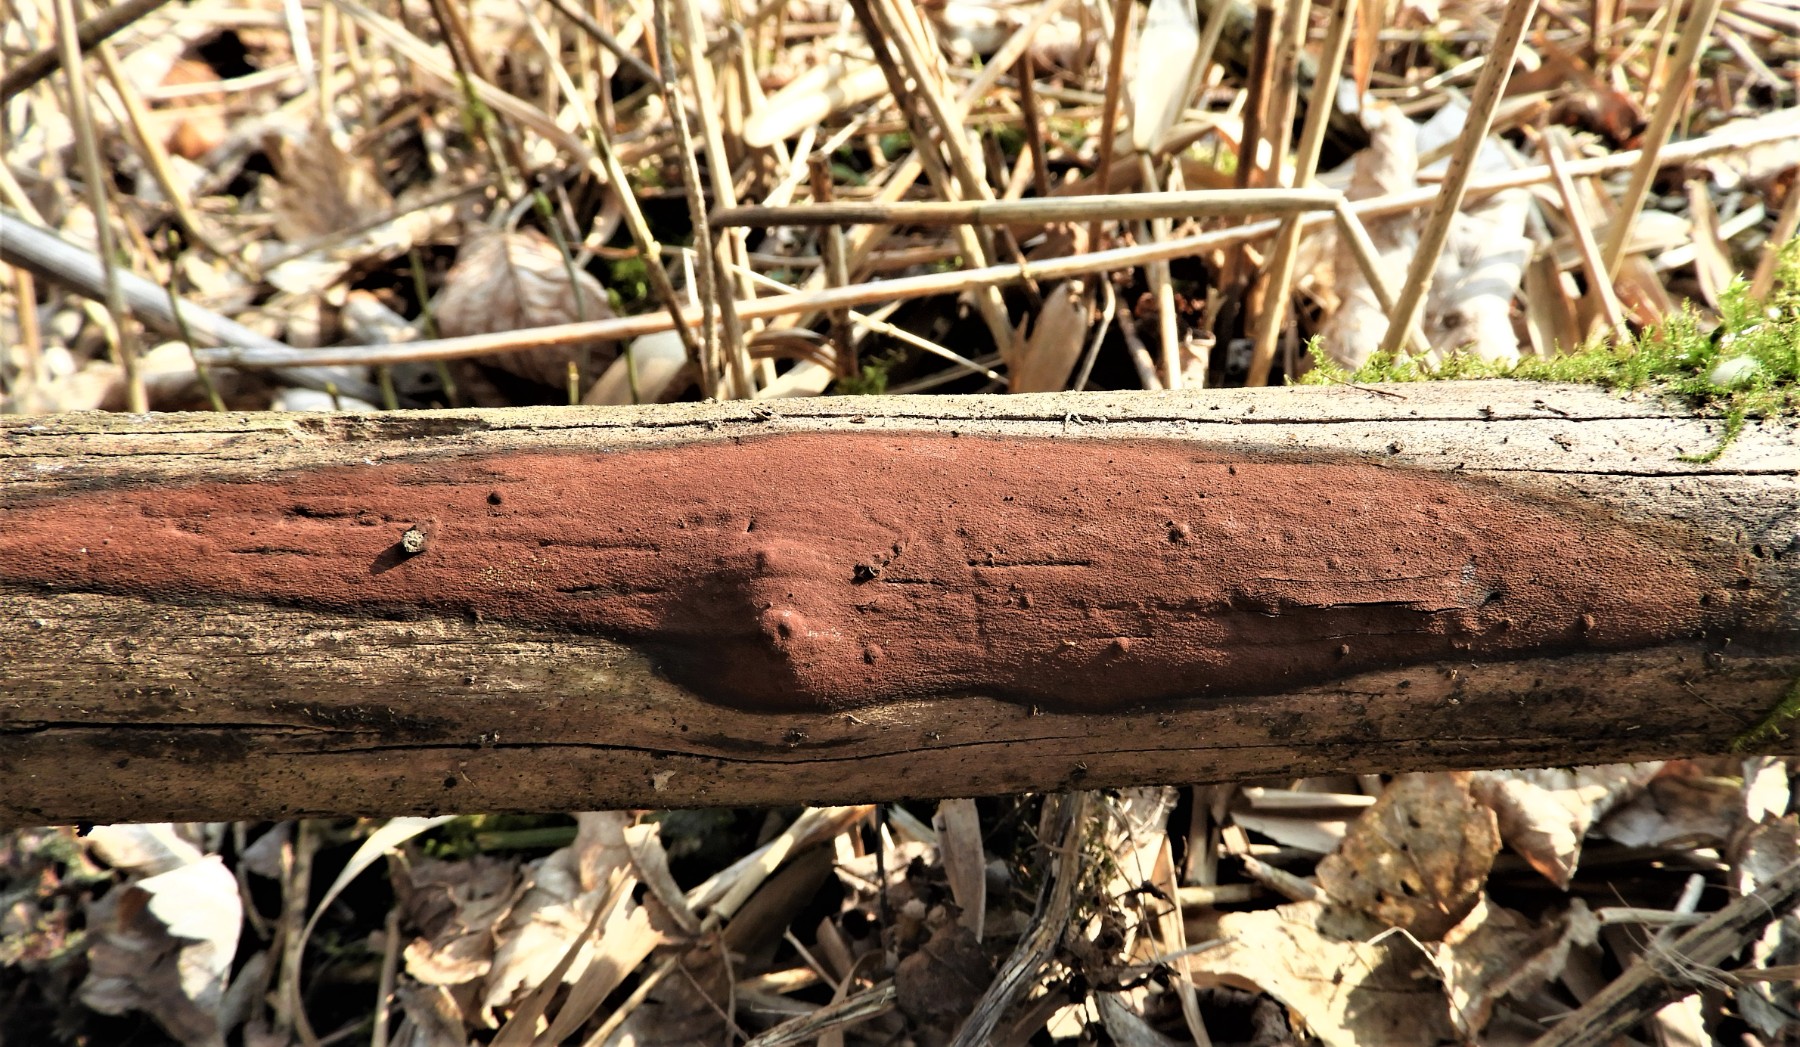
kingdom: Fungi
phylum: Ascomycota
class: Sordariomycetes
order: Xylariales
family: Hypoxylaceae
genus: Hypoxylon
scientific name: Hypoxylon
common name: kulbær
